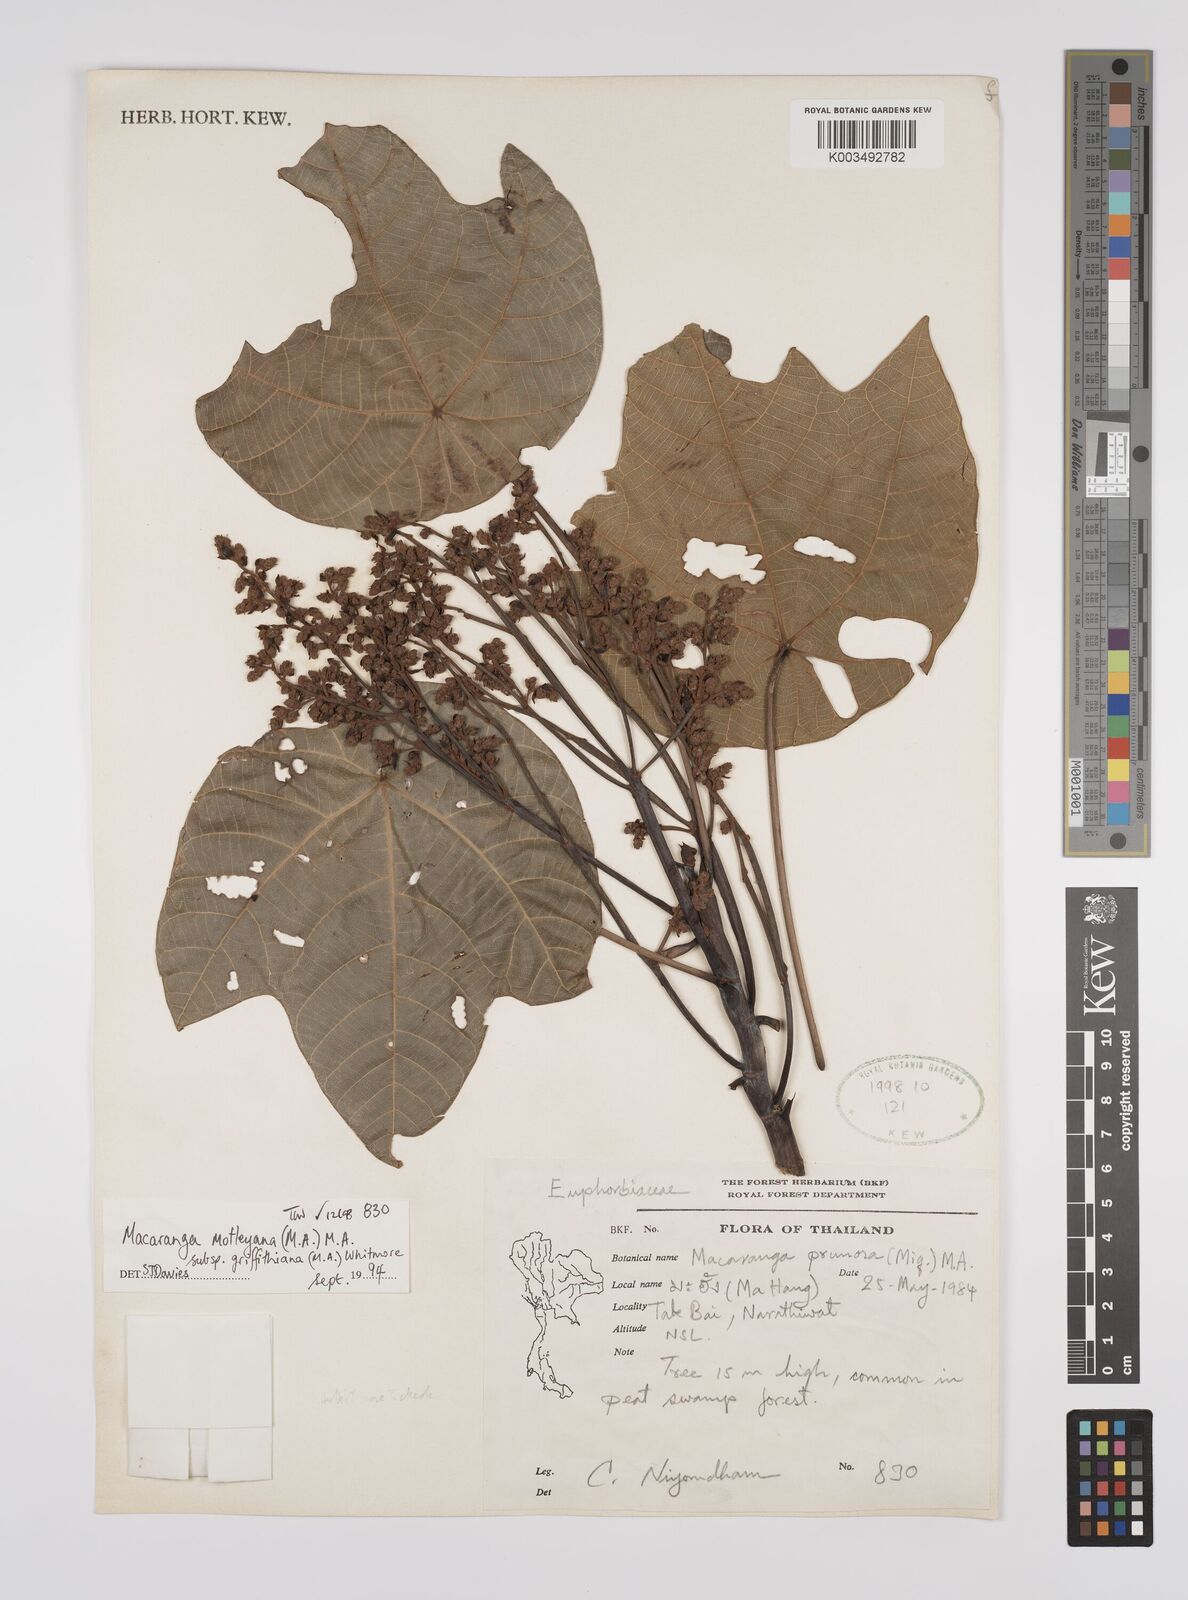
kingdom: Plantae
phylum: Tracheophyta
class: Magnoliopsida
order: Malpighiales
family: Euphorbiaceae
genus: Macaranga
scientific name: Macaranga griffithiana
